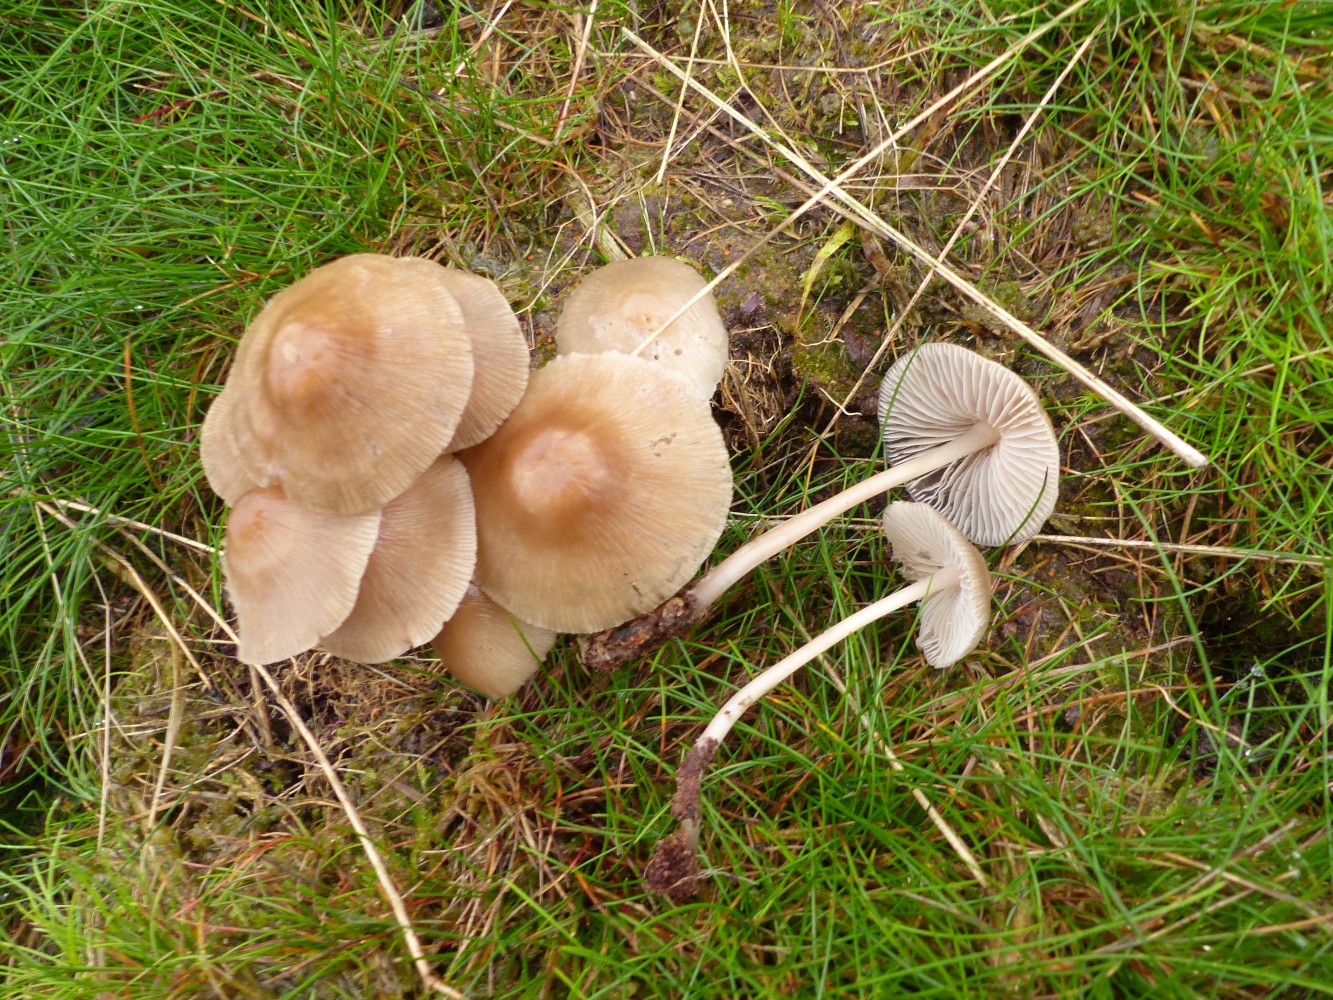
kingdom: Fungi
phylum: Basidiomycota
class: Agaricomycetes
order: Agaricales
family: Mycenaceae
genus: Mycena
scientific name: Mycena galericulata
